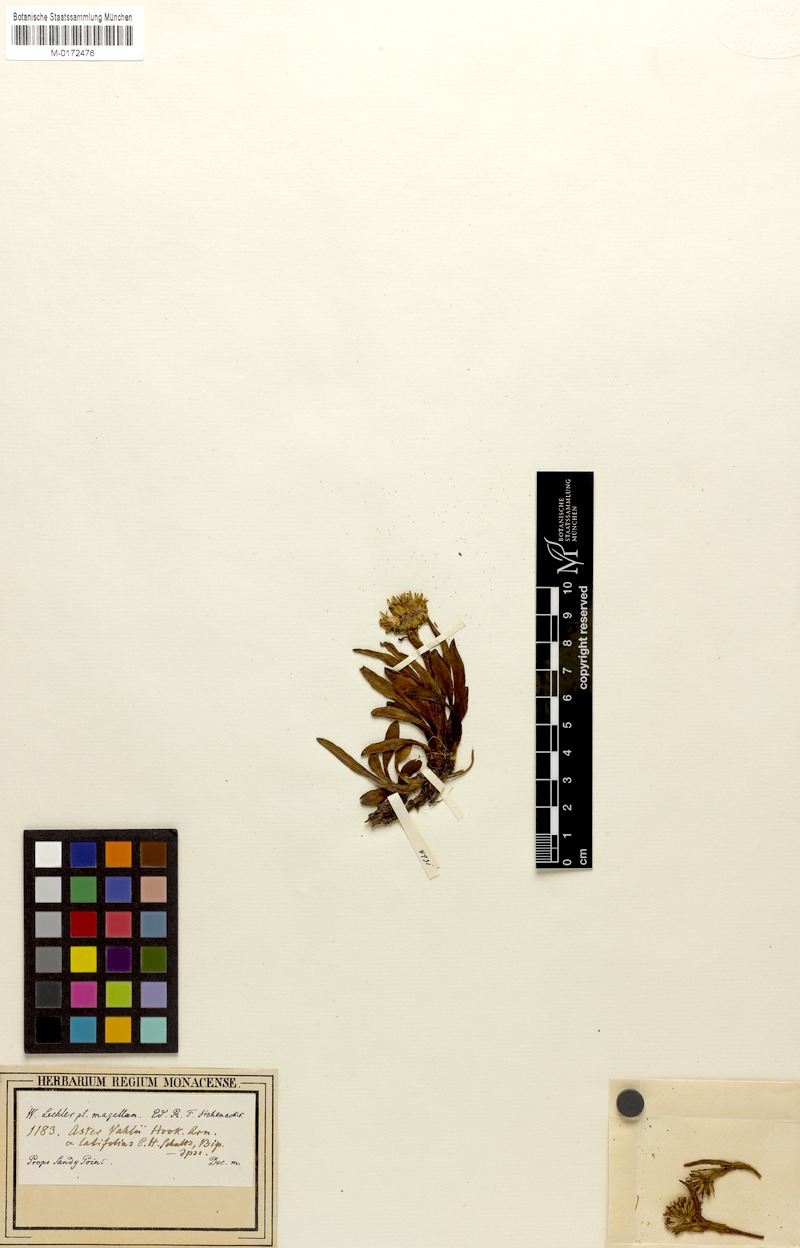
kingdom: Plantae
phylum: Tracheophyta
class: Magnoliopsida
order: Asterales
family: Asteraceae
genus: Symphyotrichum
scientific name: Symphyotrichum peteroanum
